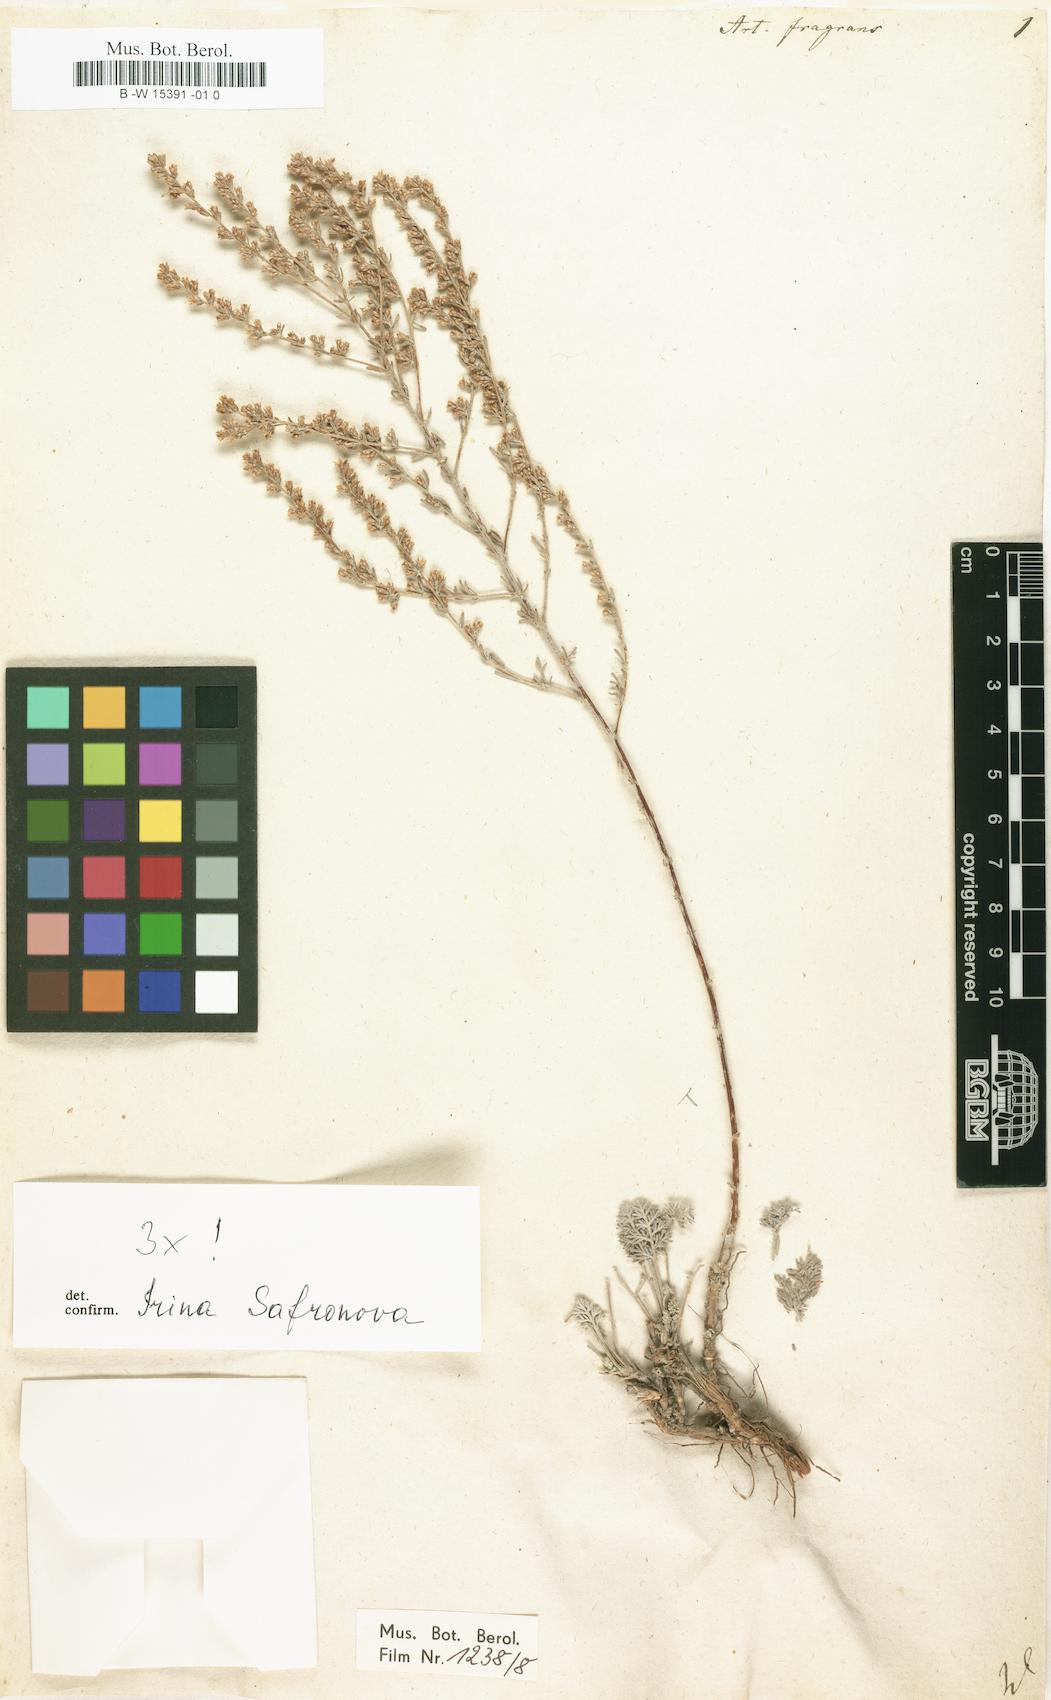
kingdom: Plantae
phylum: Tracheophyta
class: Magnoliopsida
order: Asterales
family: Asteraceae
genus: Artemisia
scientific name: Artemisia fragrans
